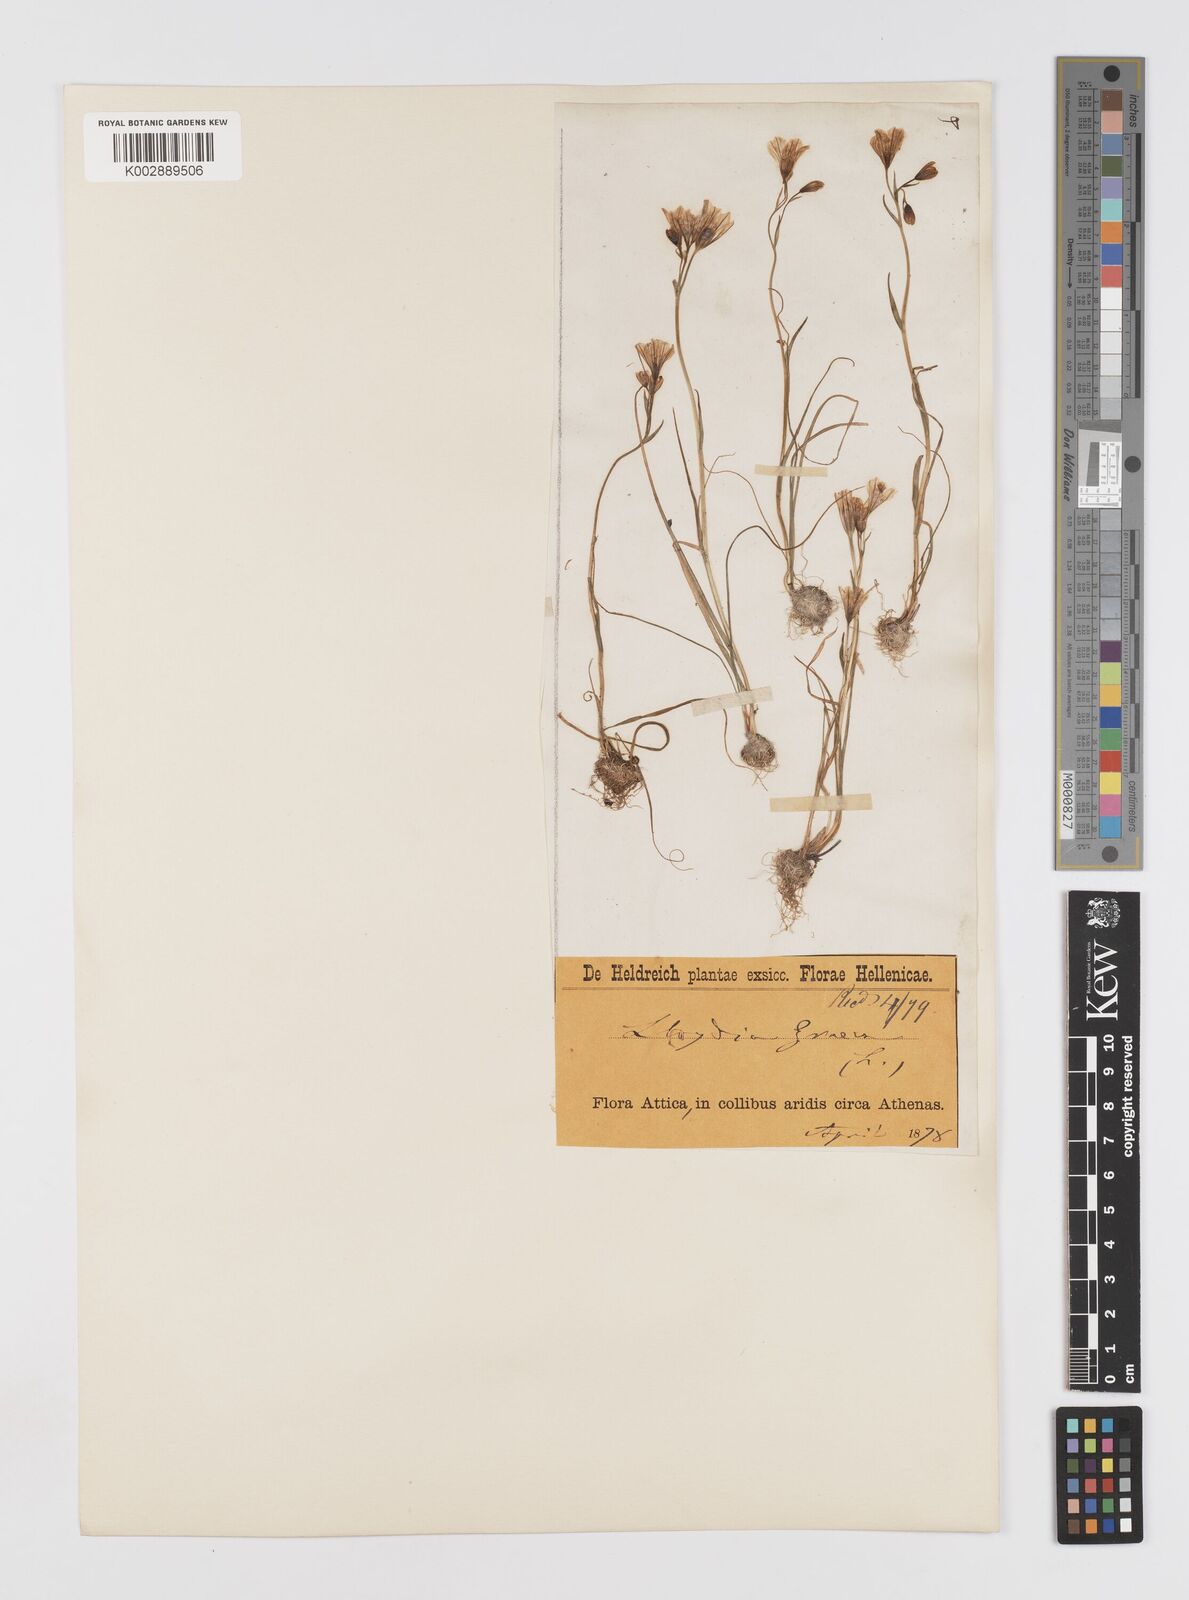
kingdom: Plantae
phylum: Tracheophyta
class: Liliopsida
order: Liliales
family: Liliaceae
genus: Gagea
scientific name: Gagea graeca
